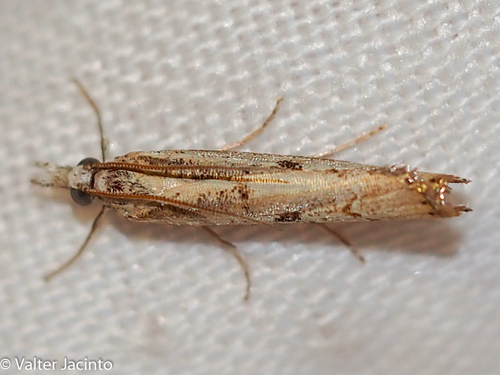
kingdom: Animalia
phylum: Arthropoda
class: Insecta
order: Lepidoptera
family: Crambidae
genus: Agriphila
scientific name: Agriphila geniculea
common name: Elbow-stripe grass-veneer
